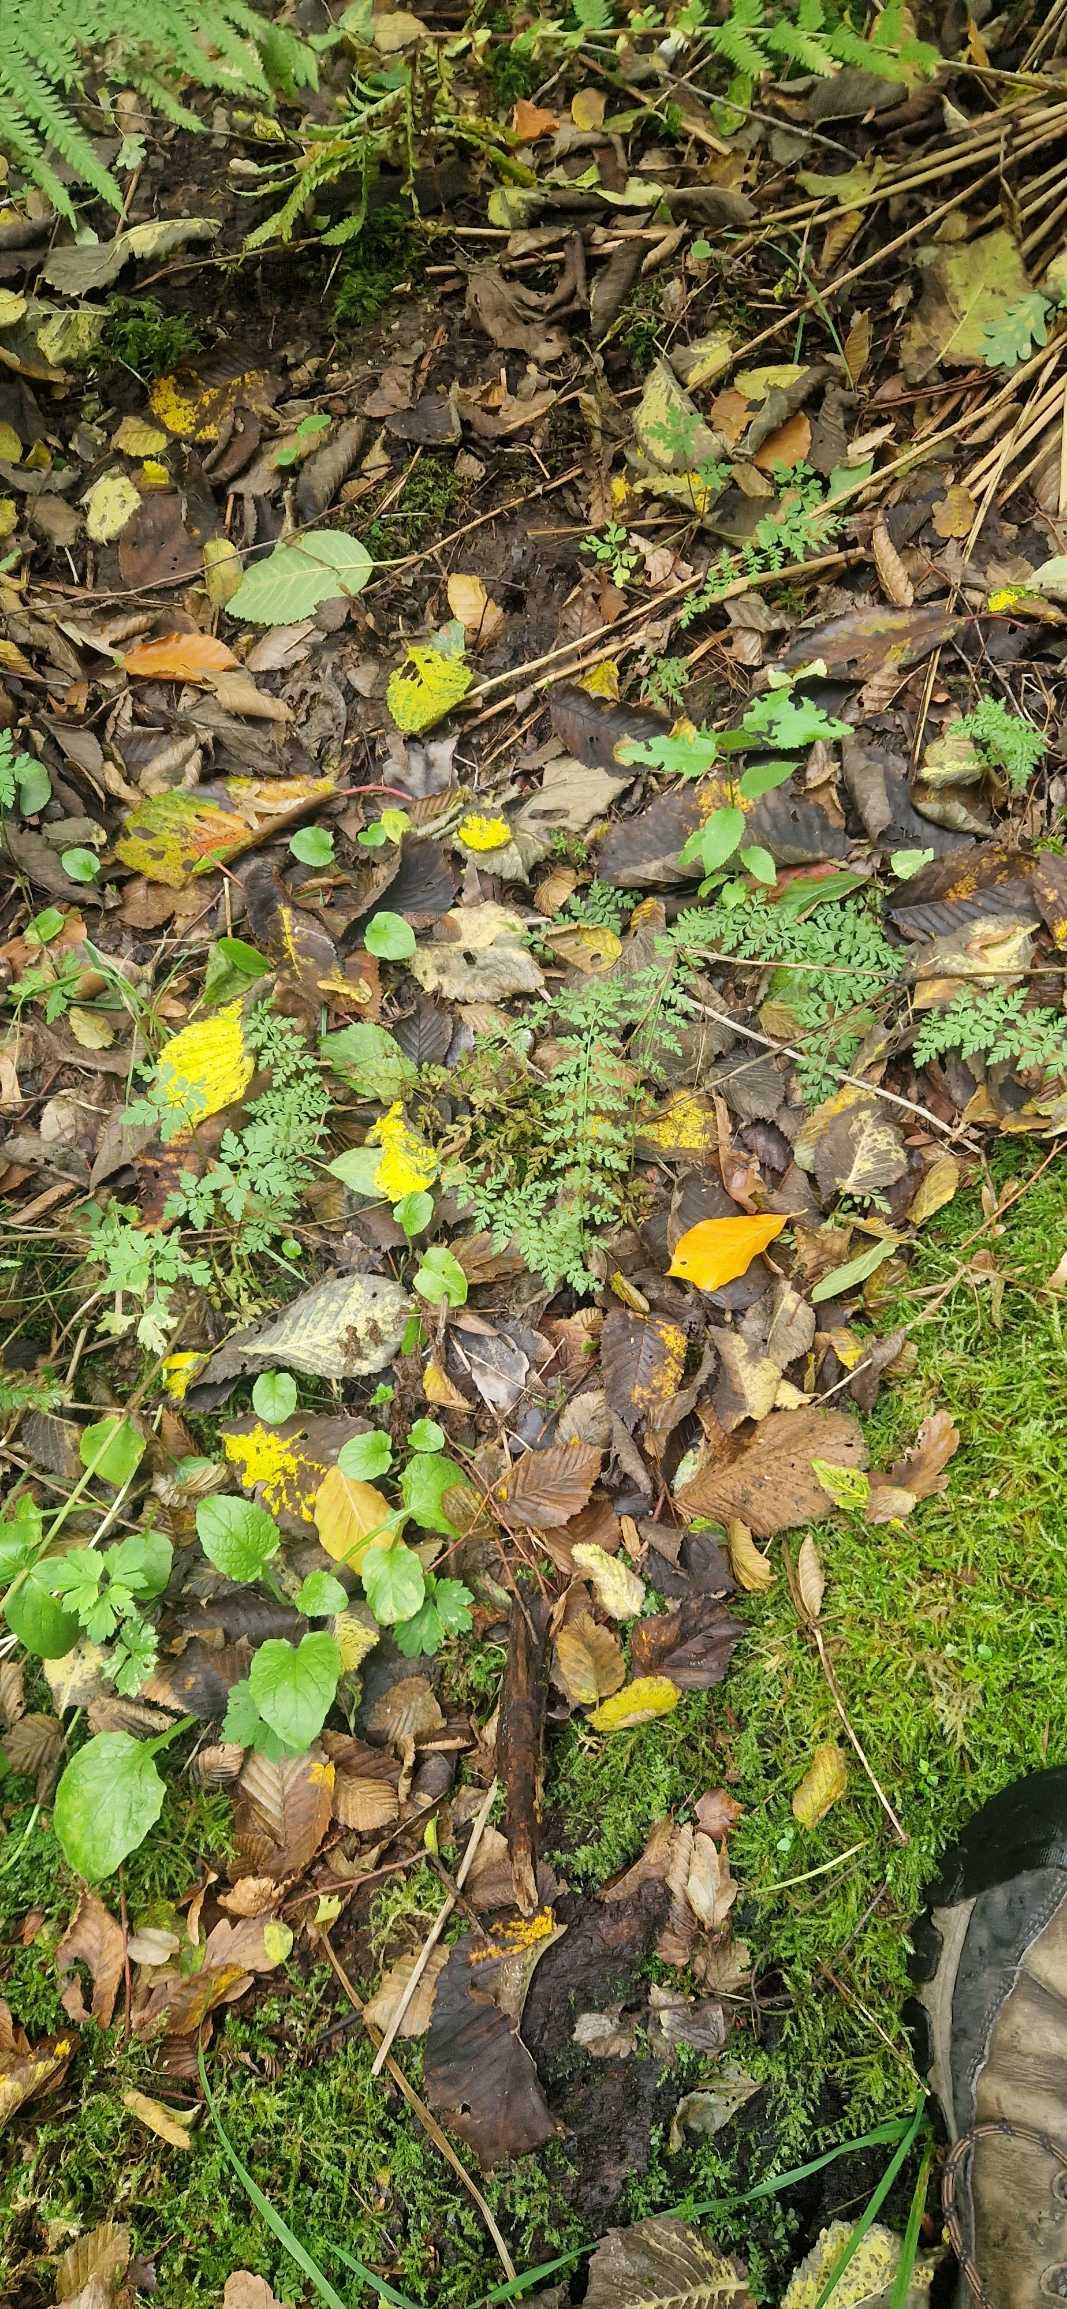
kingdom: Plantae
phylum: Tracheophyta
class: Polypodiopsida
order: Polypodiales
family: Cystopteridaceae
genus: Cystopteris
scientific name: Cystopteris fragilis
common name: Bægerbregne
